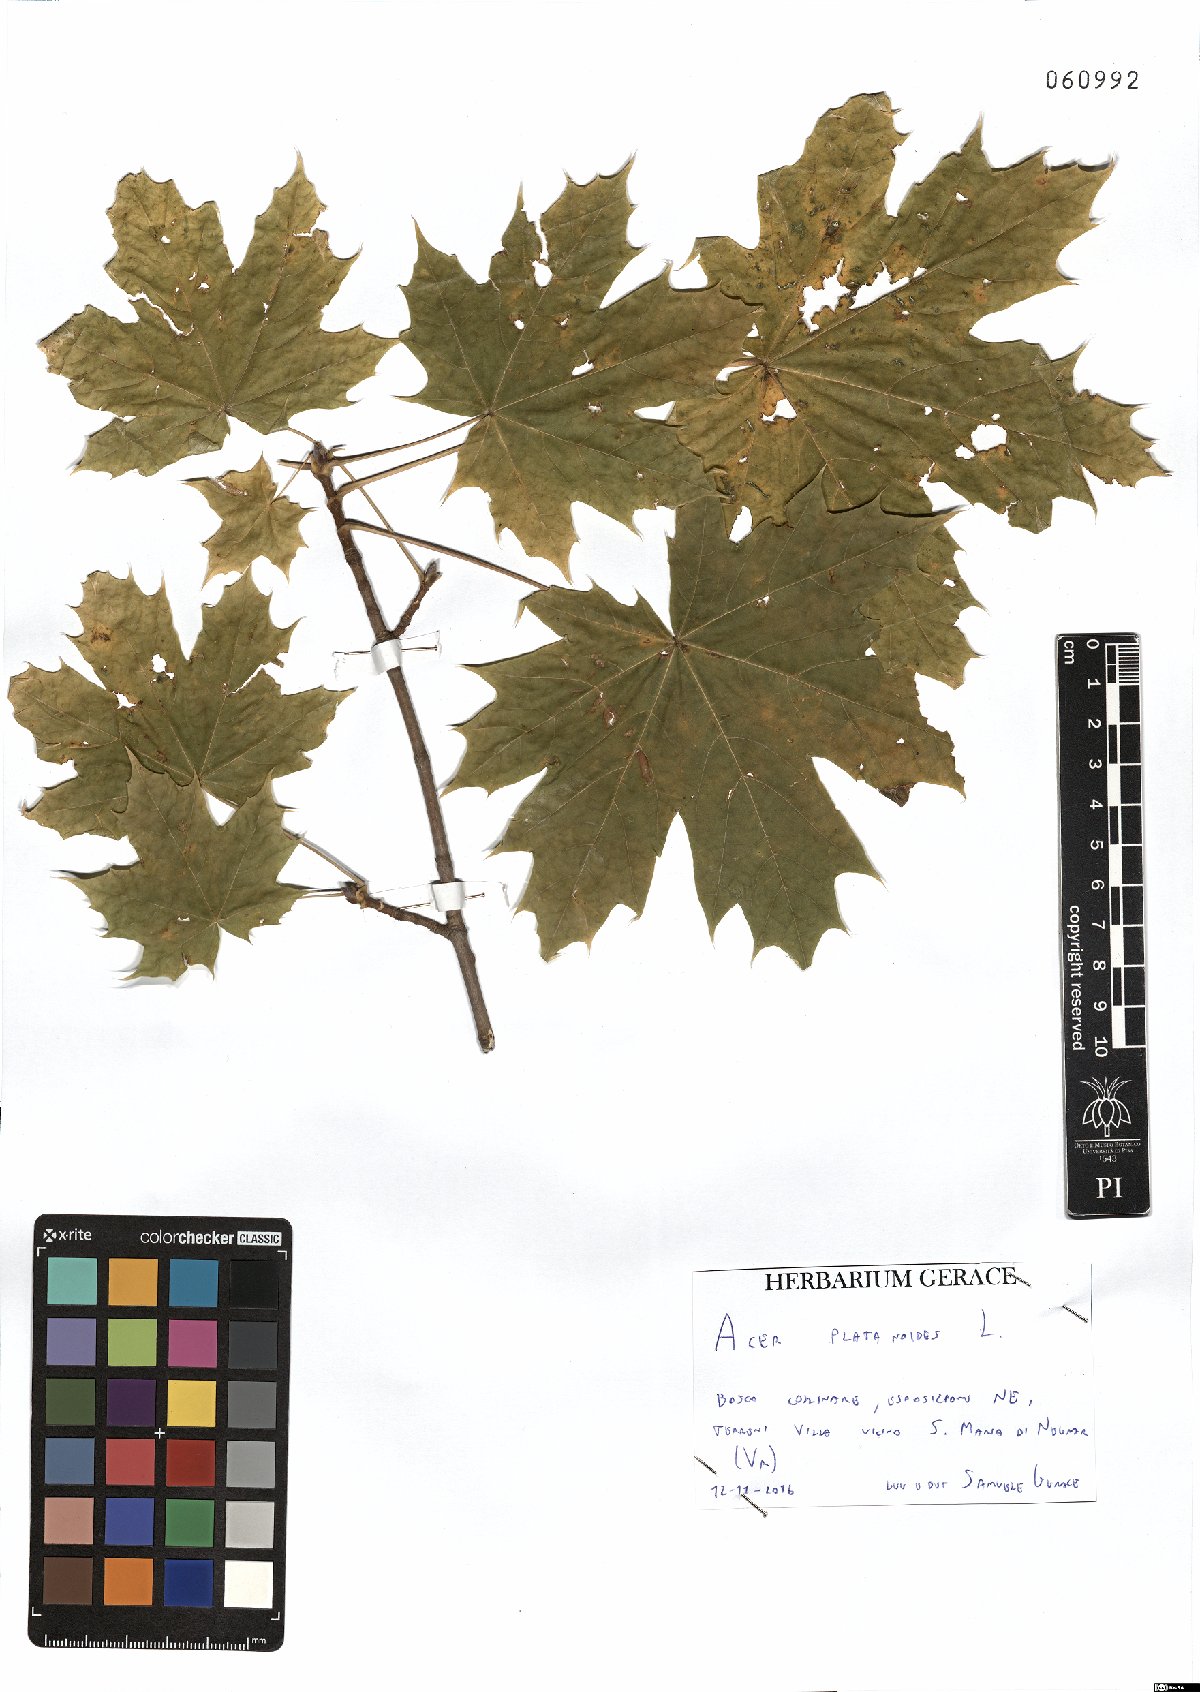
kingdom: Plantae
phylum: Tracheophyta
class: Magnoliopsida
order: Sapindales
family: Sapindaceae
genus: Acer
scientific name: Acer platanoides
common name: Norway maple
